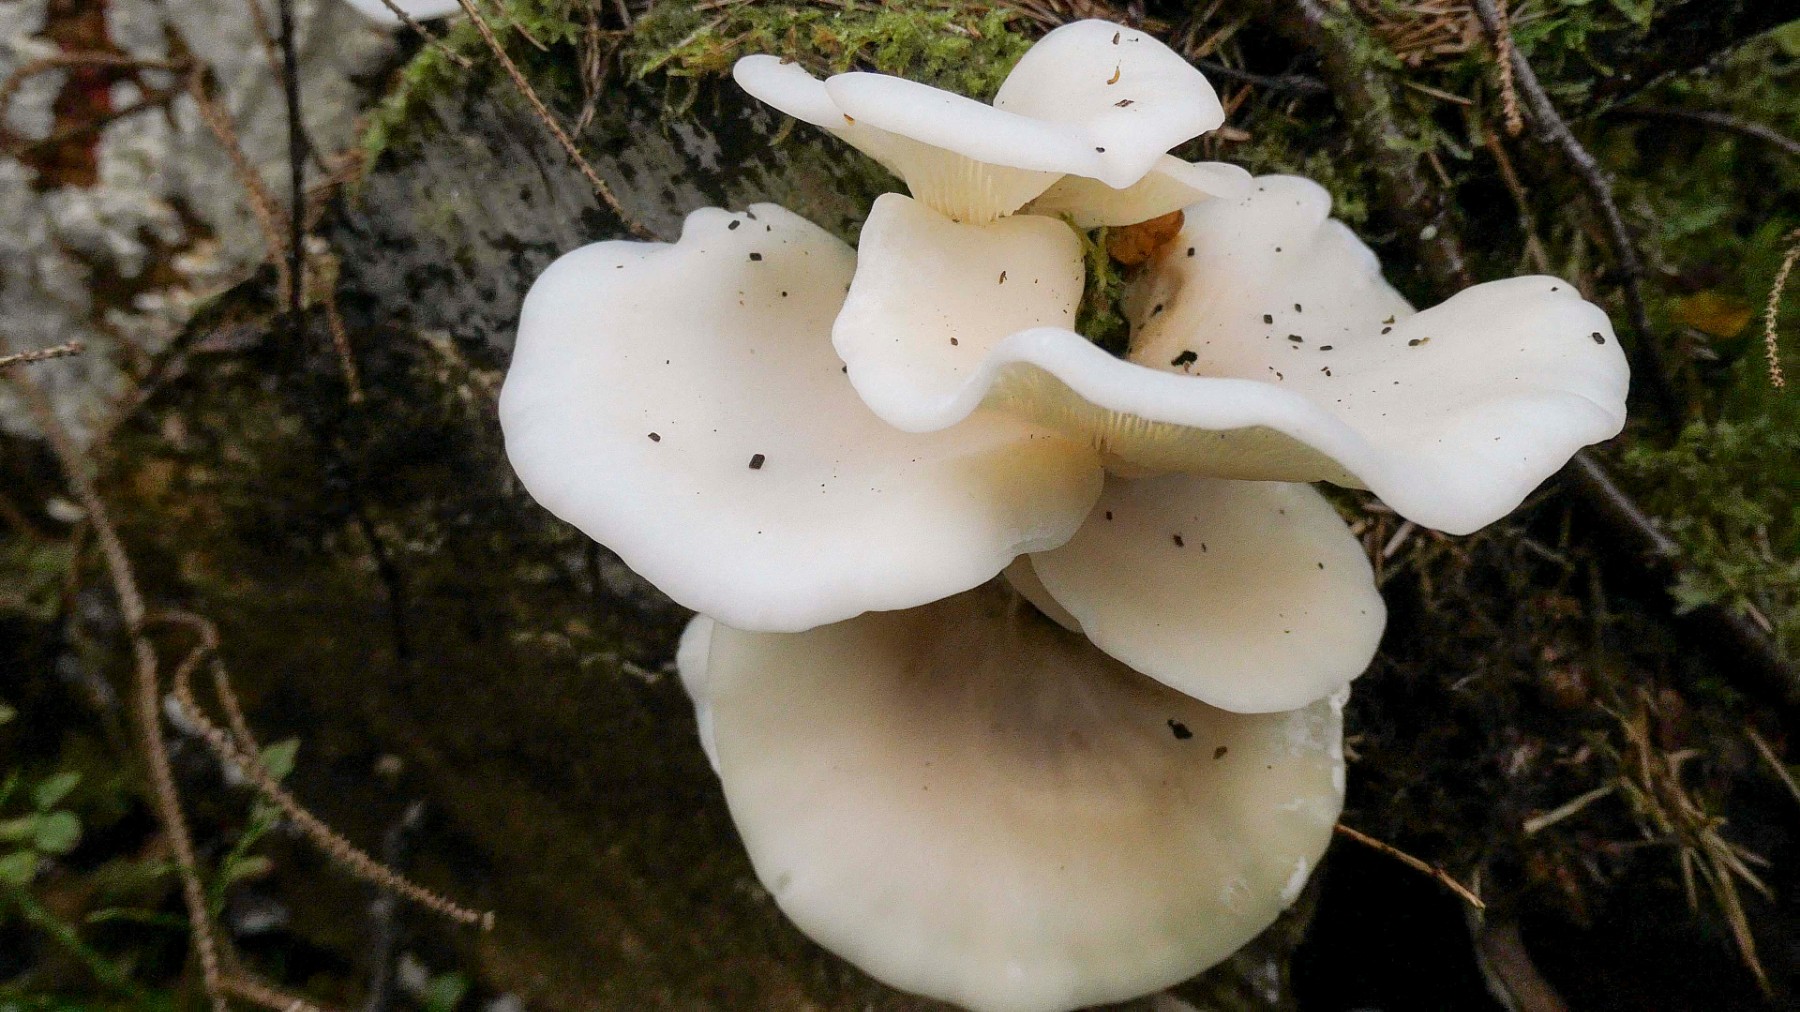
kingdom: Fungi
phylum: Basidiomycota
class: Agaricomycetes
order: Agaricales
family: Marasmiaceae
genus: Pleurocybella
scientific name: Pleurocybella porrigens
